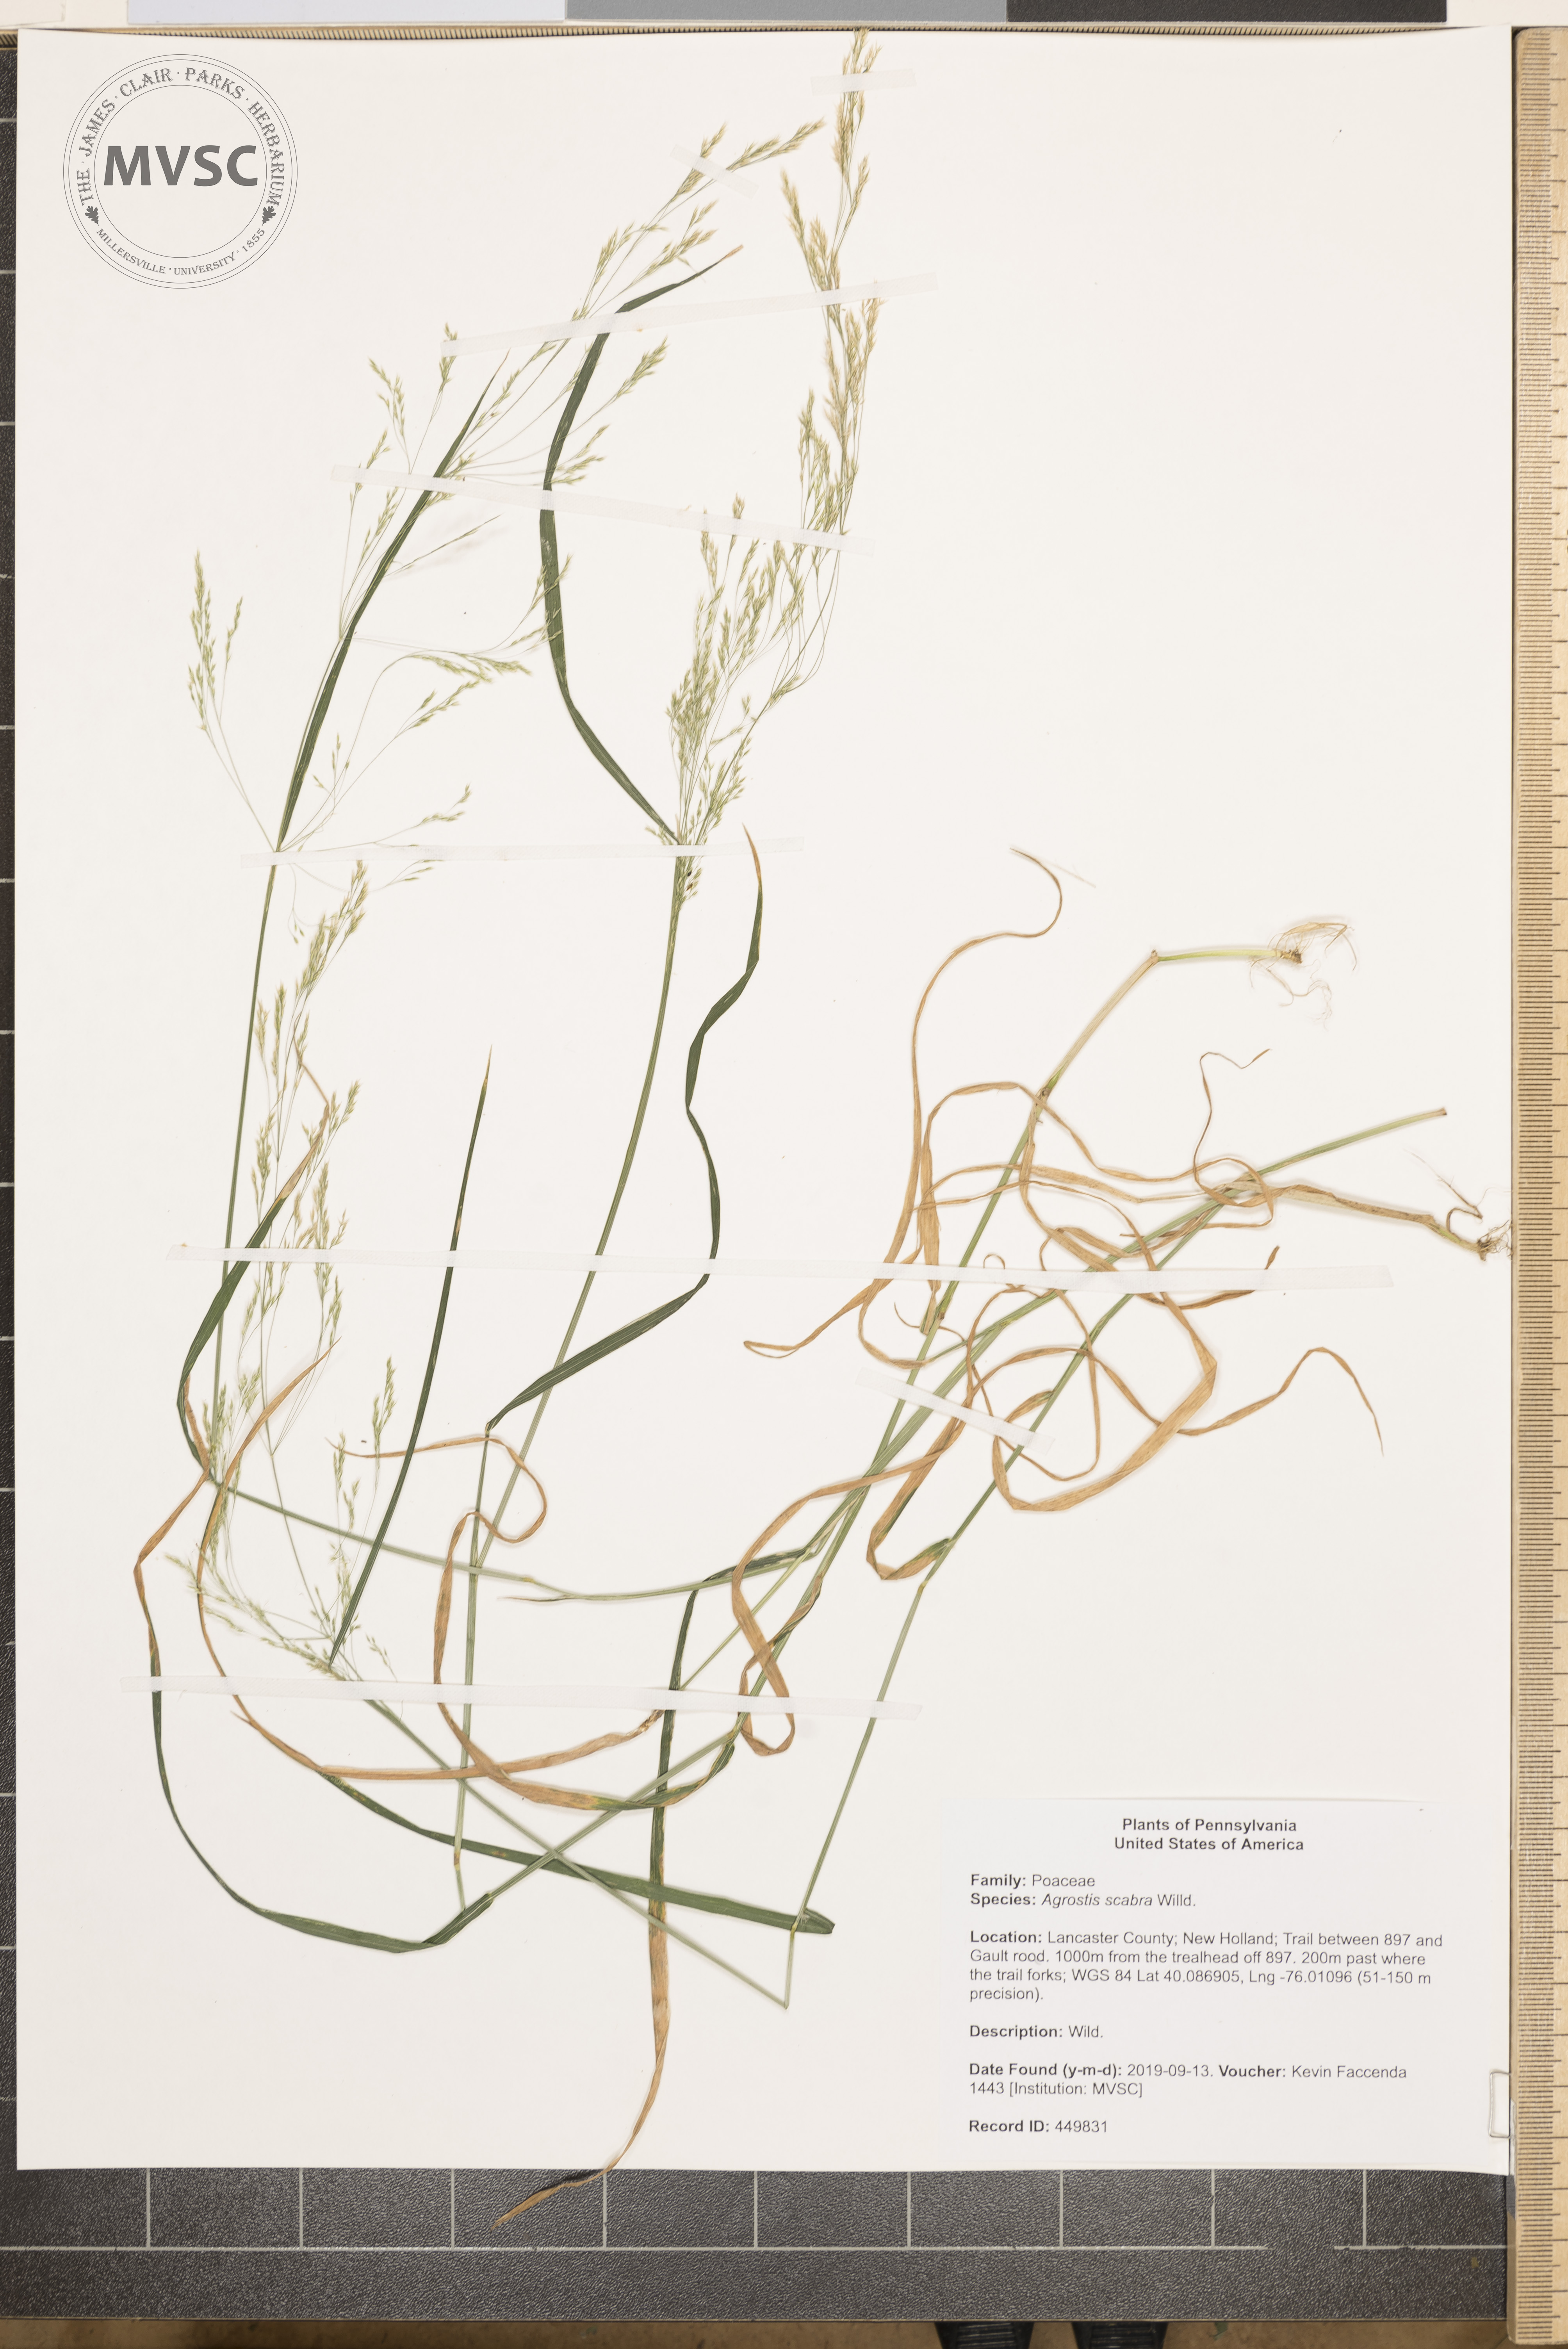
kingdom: Plantae
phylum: Tracheophyta
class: Liliopsida
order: Poales
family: Poaceae
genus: Agrostis
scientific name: Agrostis perennans
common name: bentgrass
